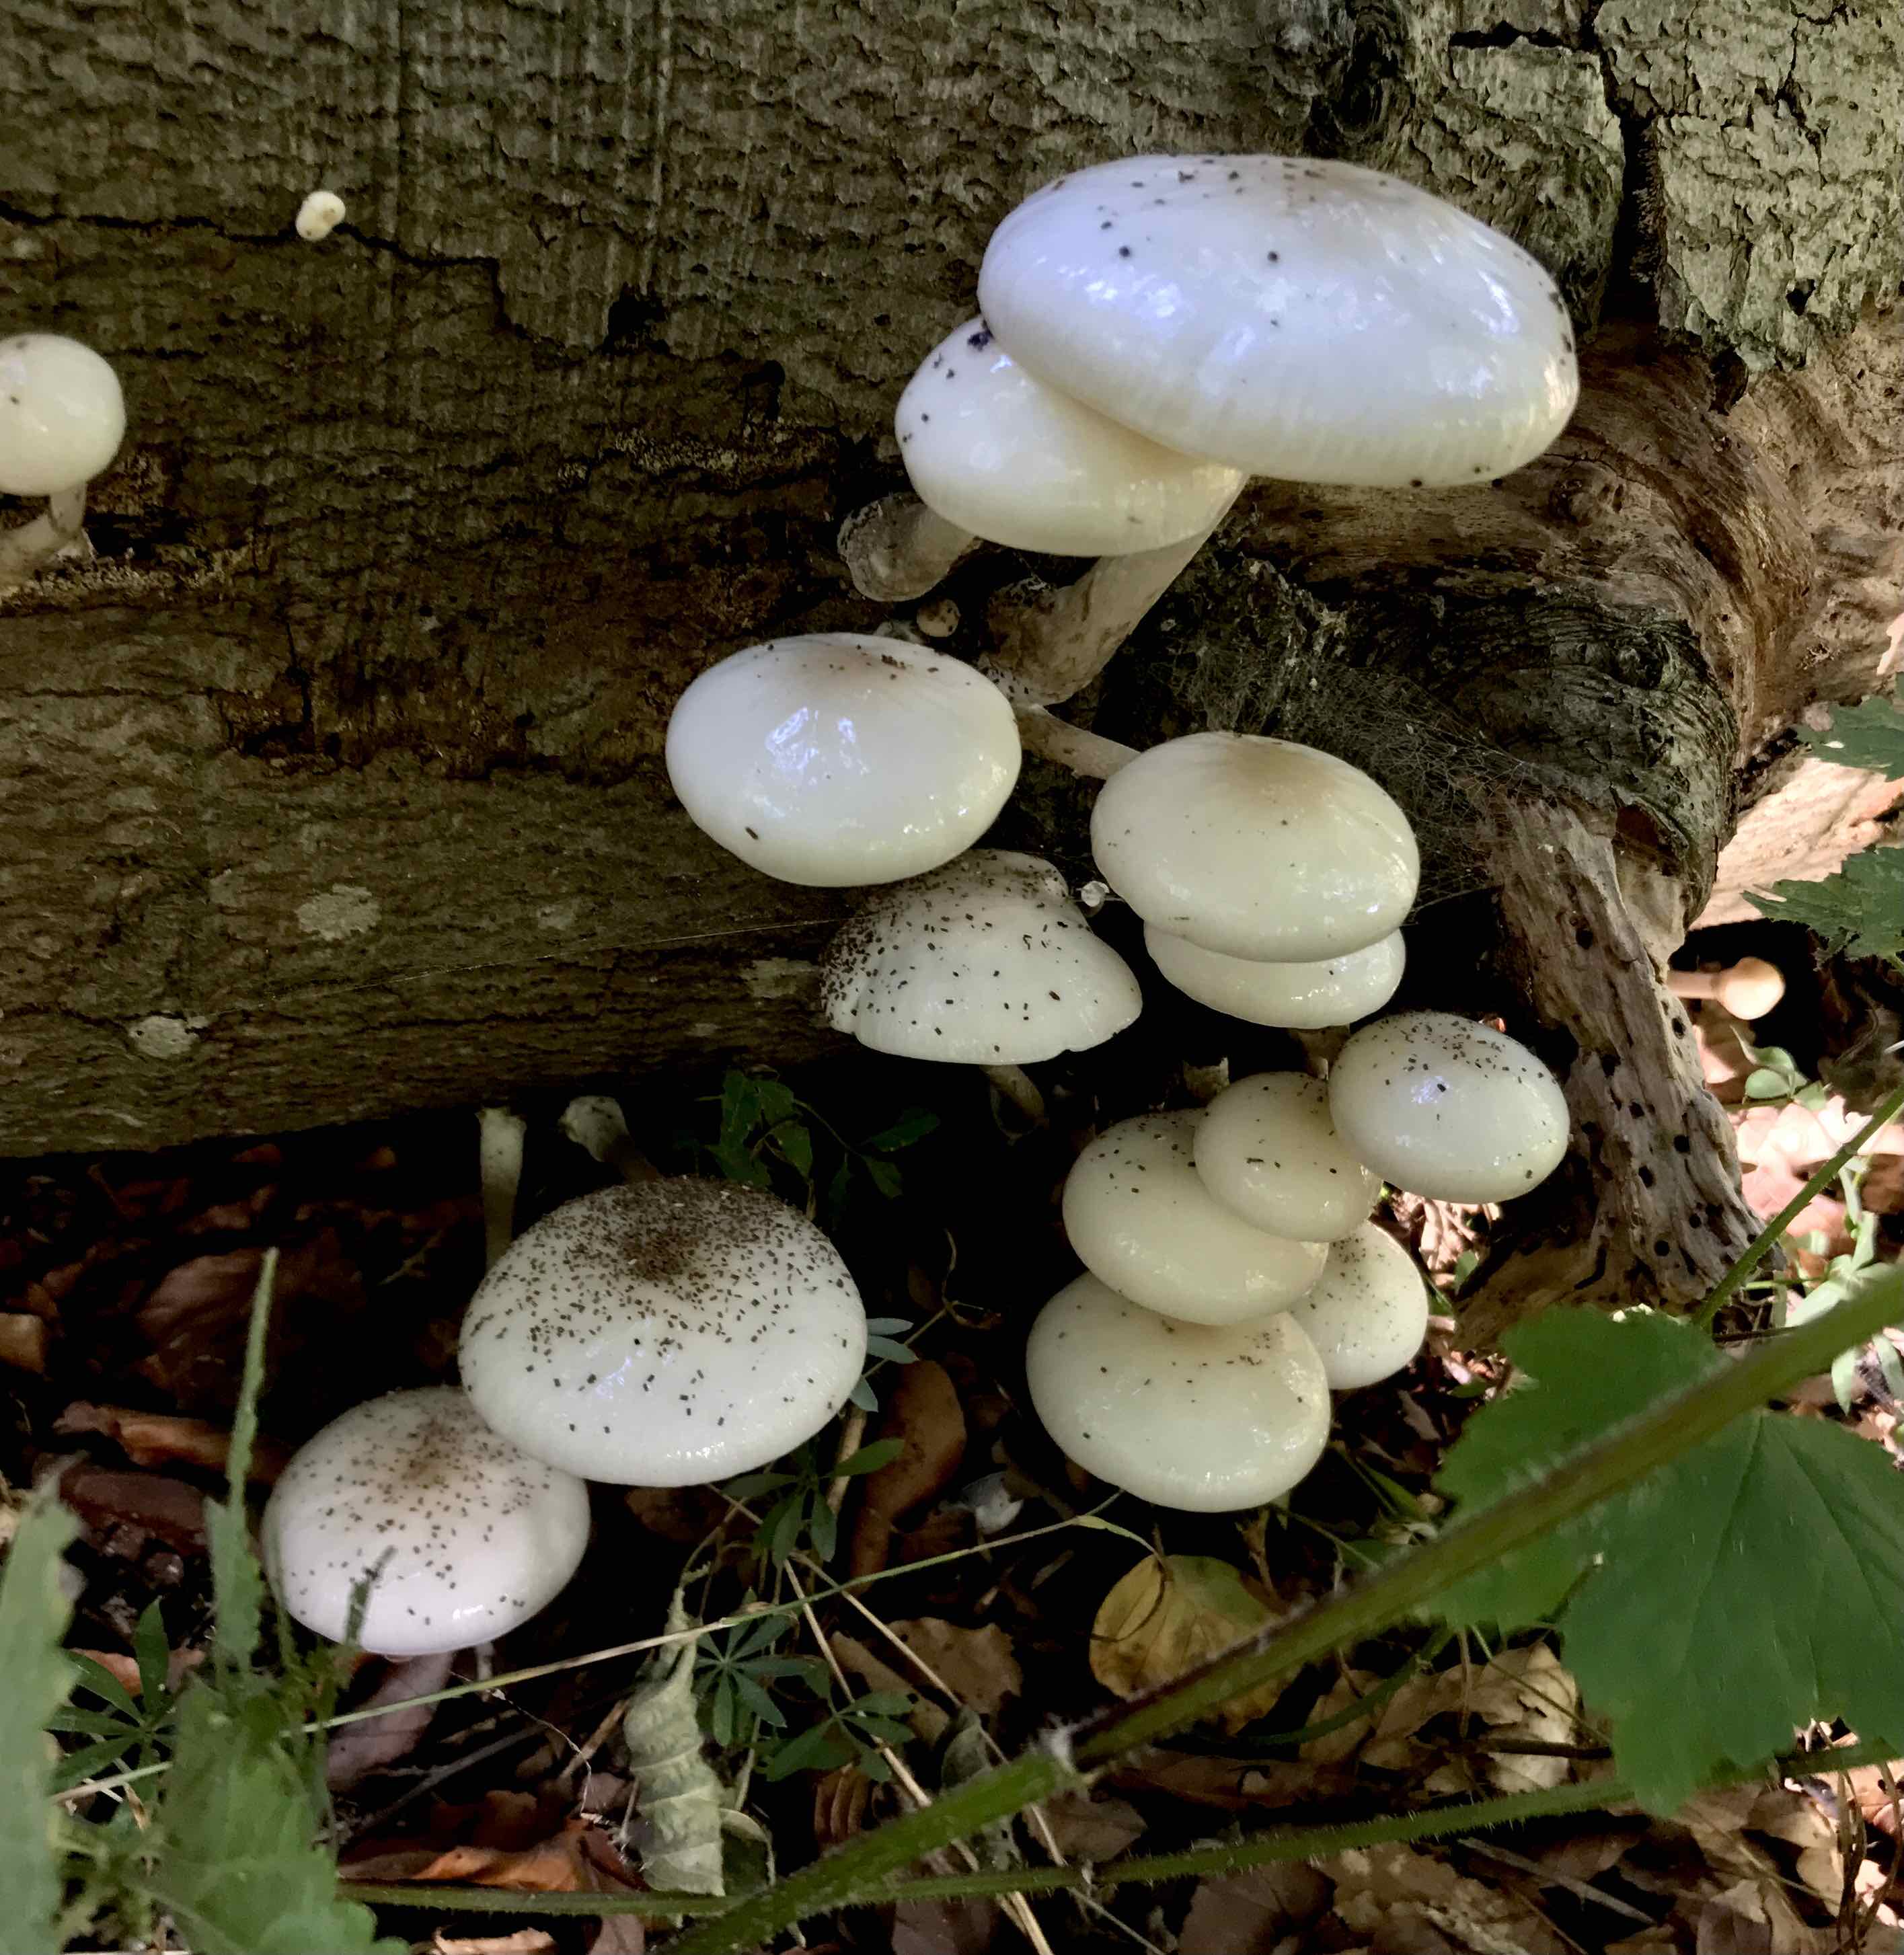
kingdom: Fungi
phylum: Basidiomycota
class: Agaricomycetes
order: Agaricales
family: Physalacriaceae
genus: Mucidula
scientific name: Mucidula mucida
